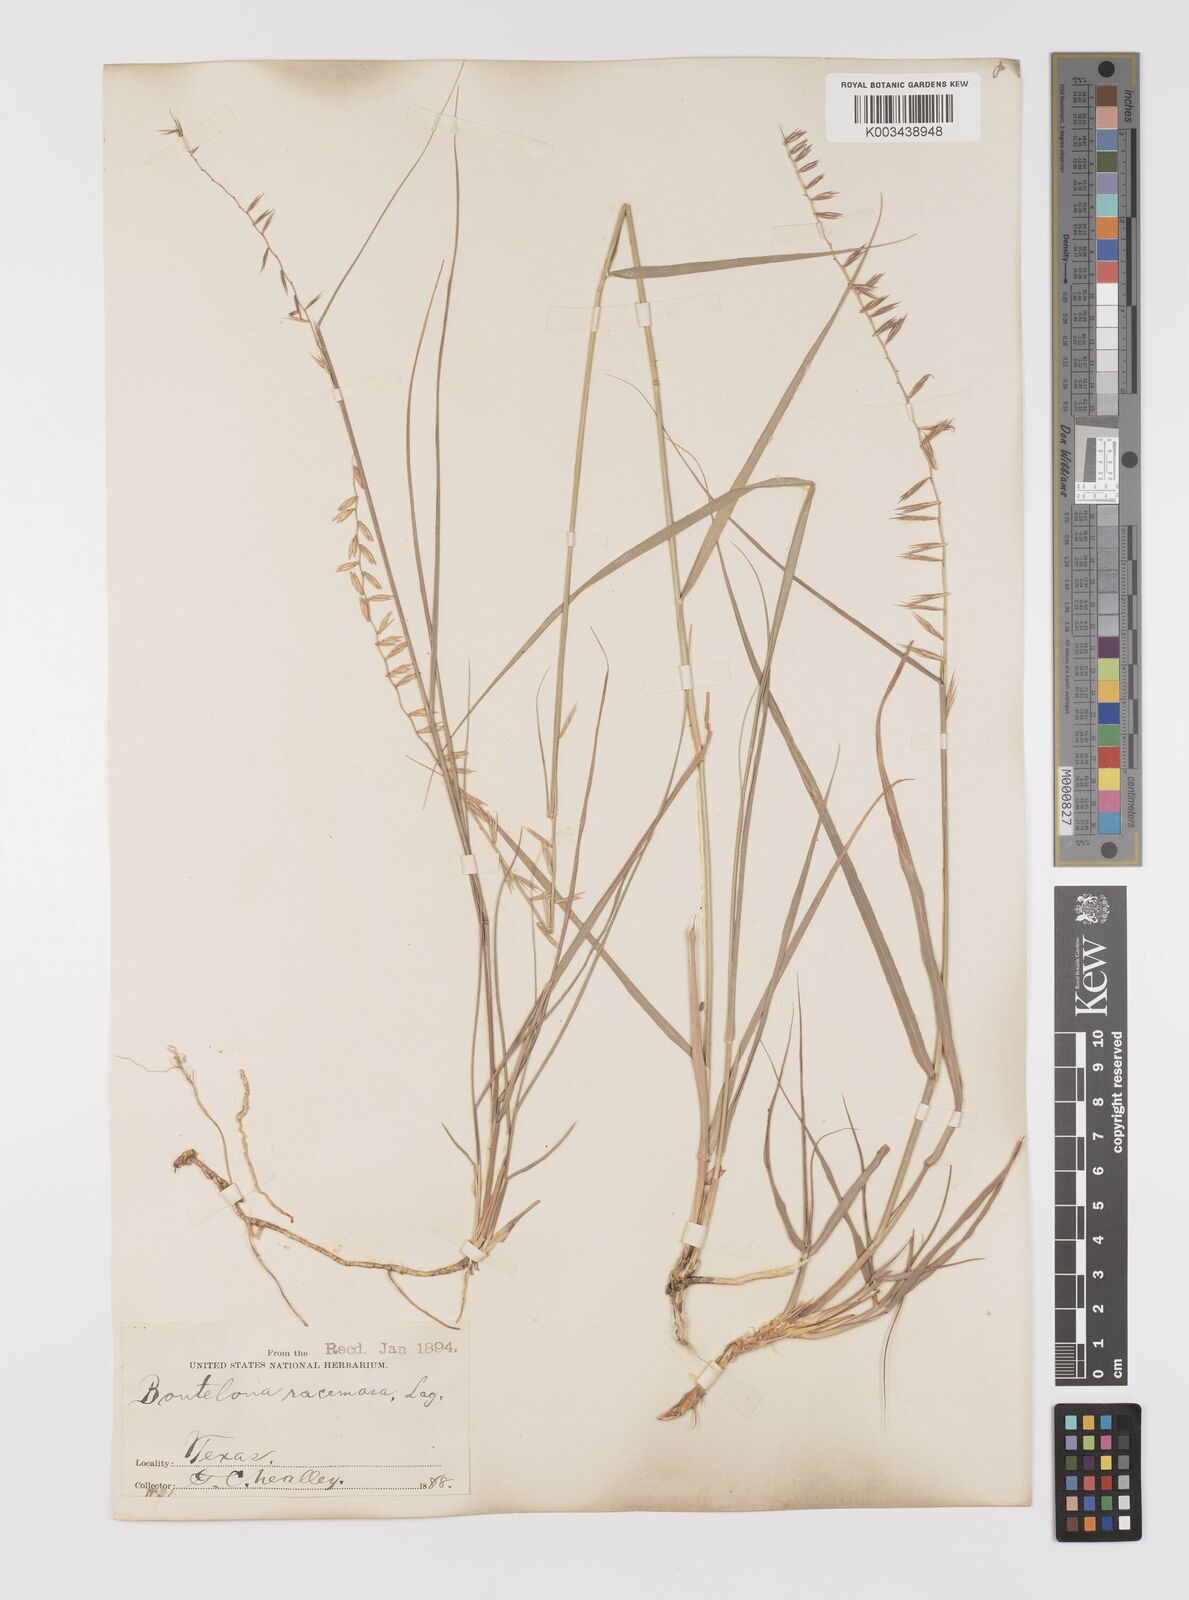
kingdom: Plantae
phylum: Tracheophyta
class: Liliopsida
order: Poales
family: Poaceae
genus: Bouteloua
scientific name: Bouteloua curtipendula
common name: Side-oats grama
